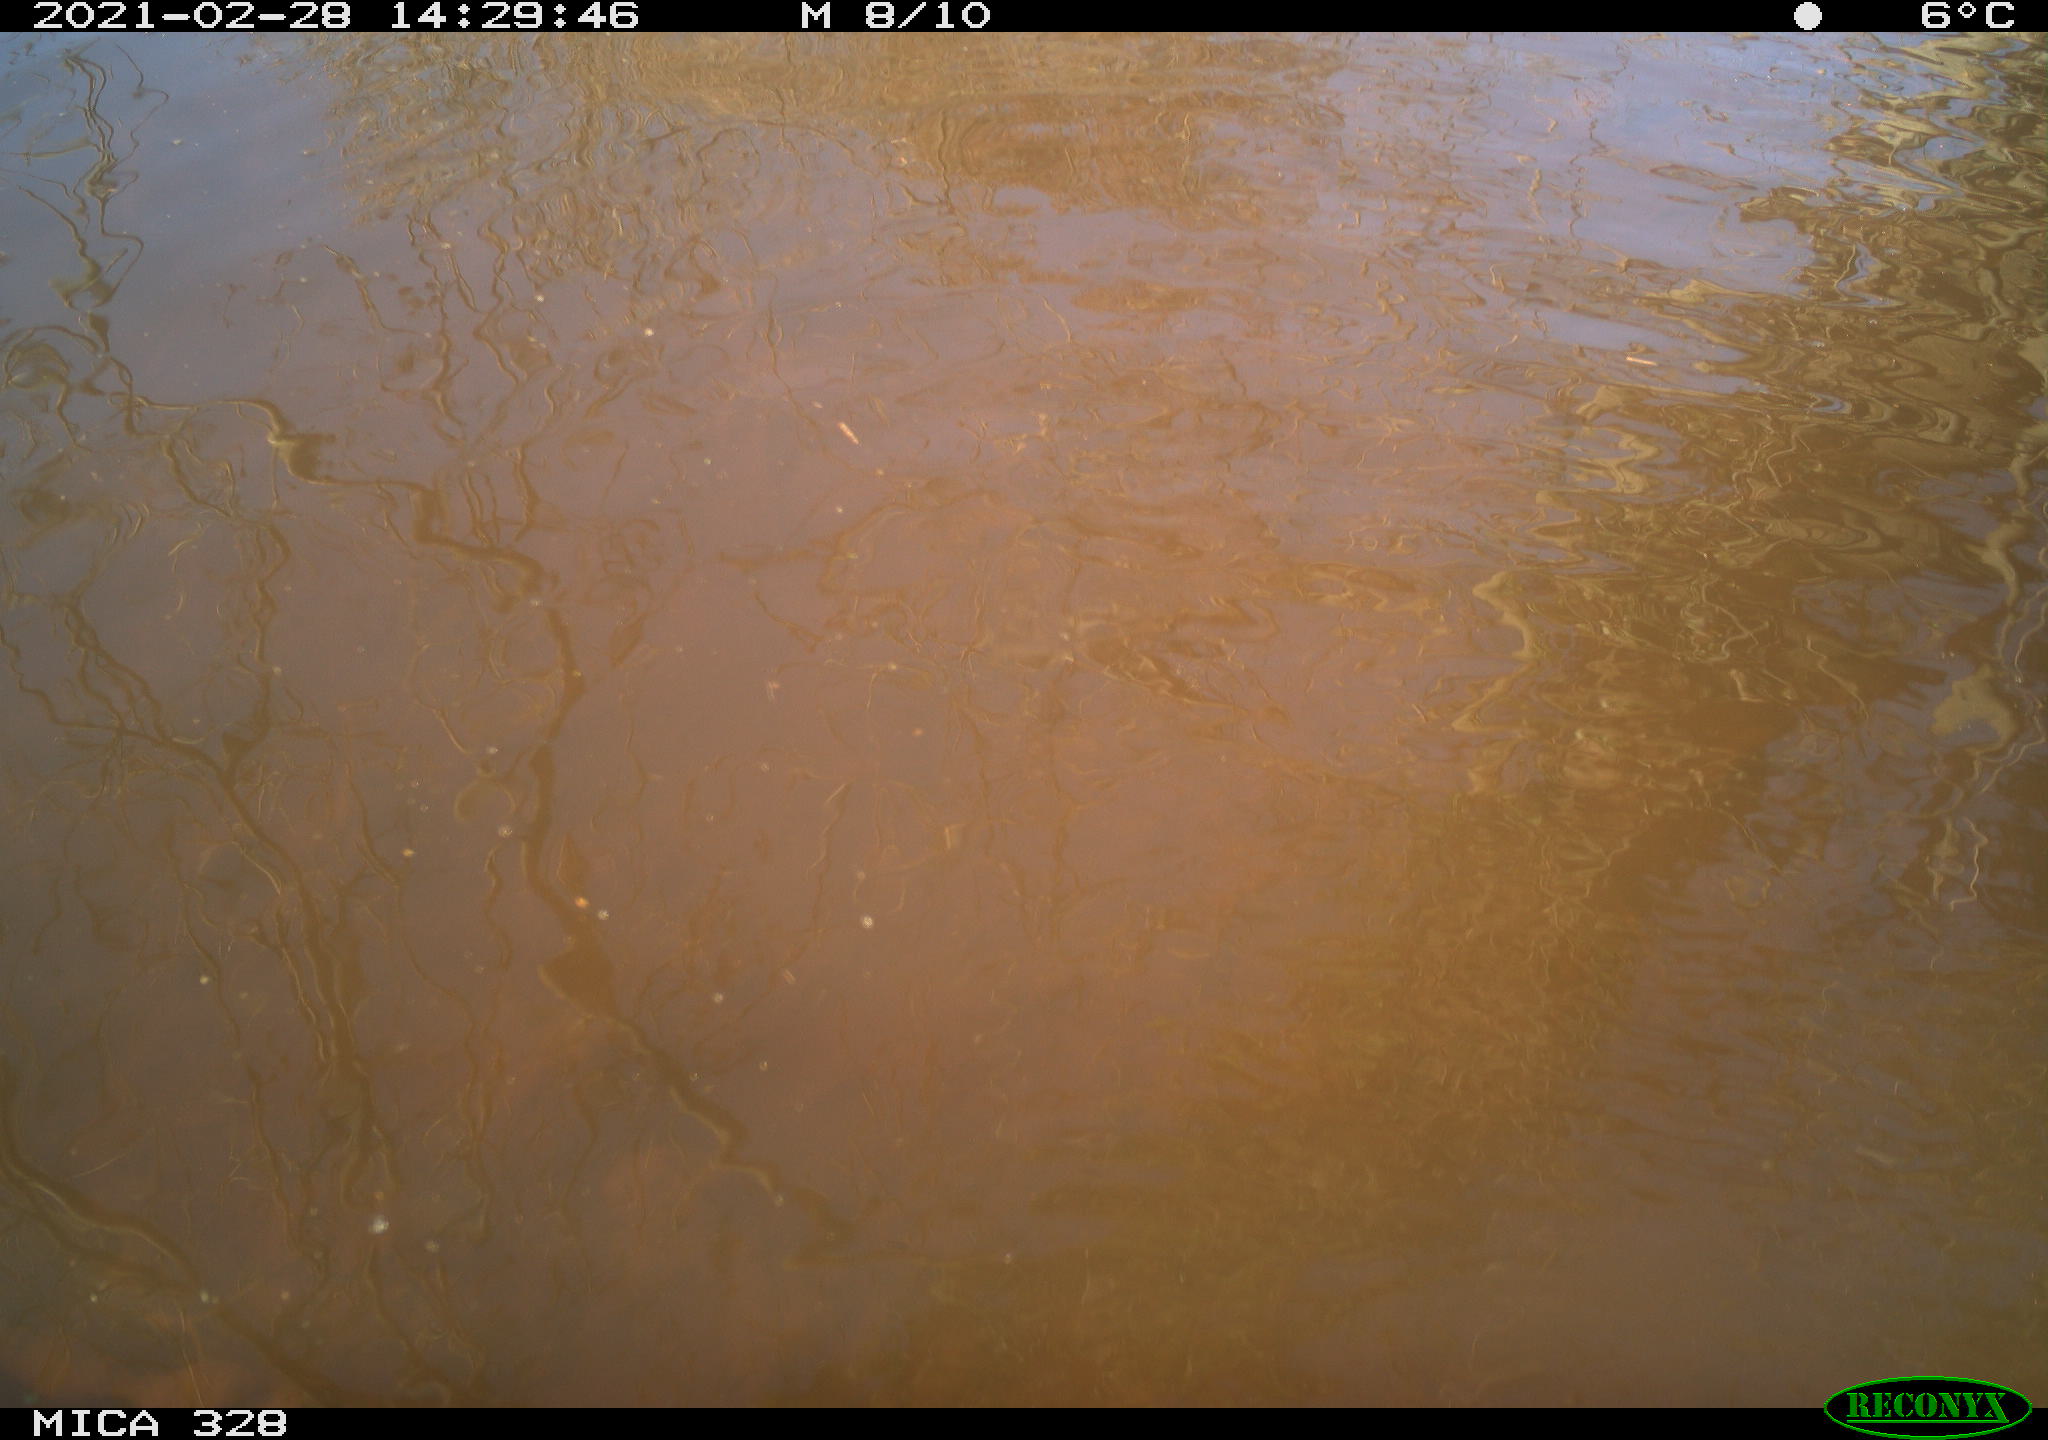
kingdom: Animalia
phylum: Chordata
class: Mammalia
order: Rodentia
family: Cricetidae
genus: Ondatra
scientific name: Ondatra zibethicus
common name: Muskrat
